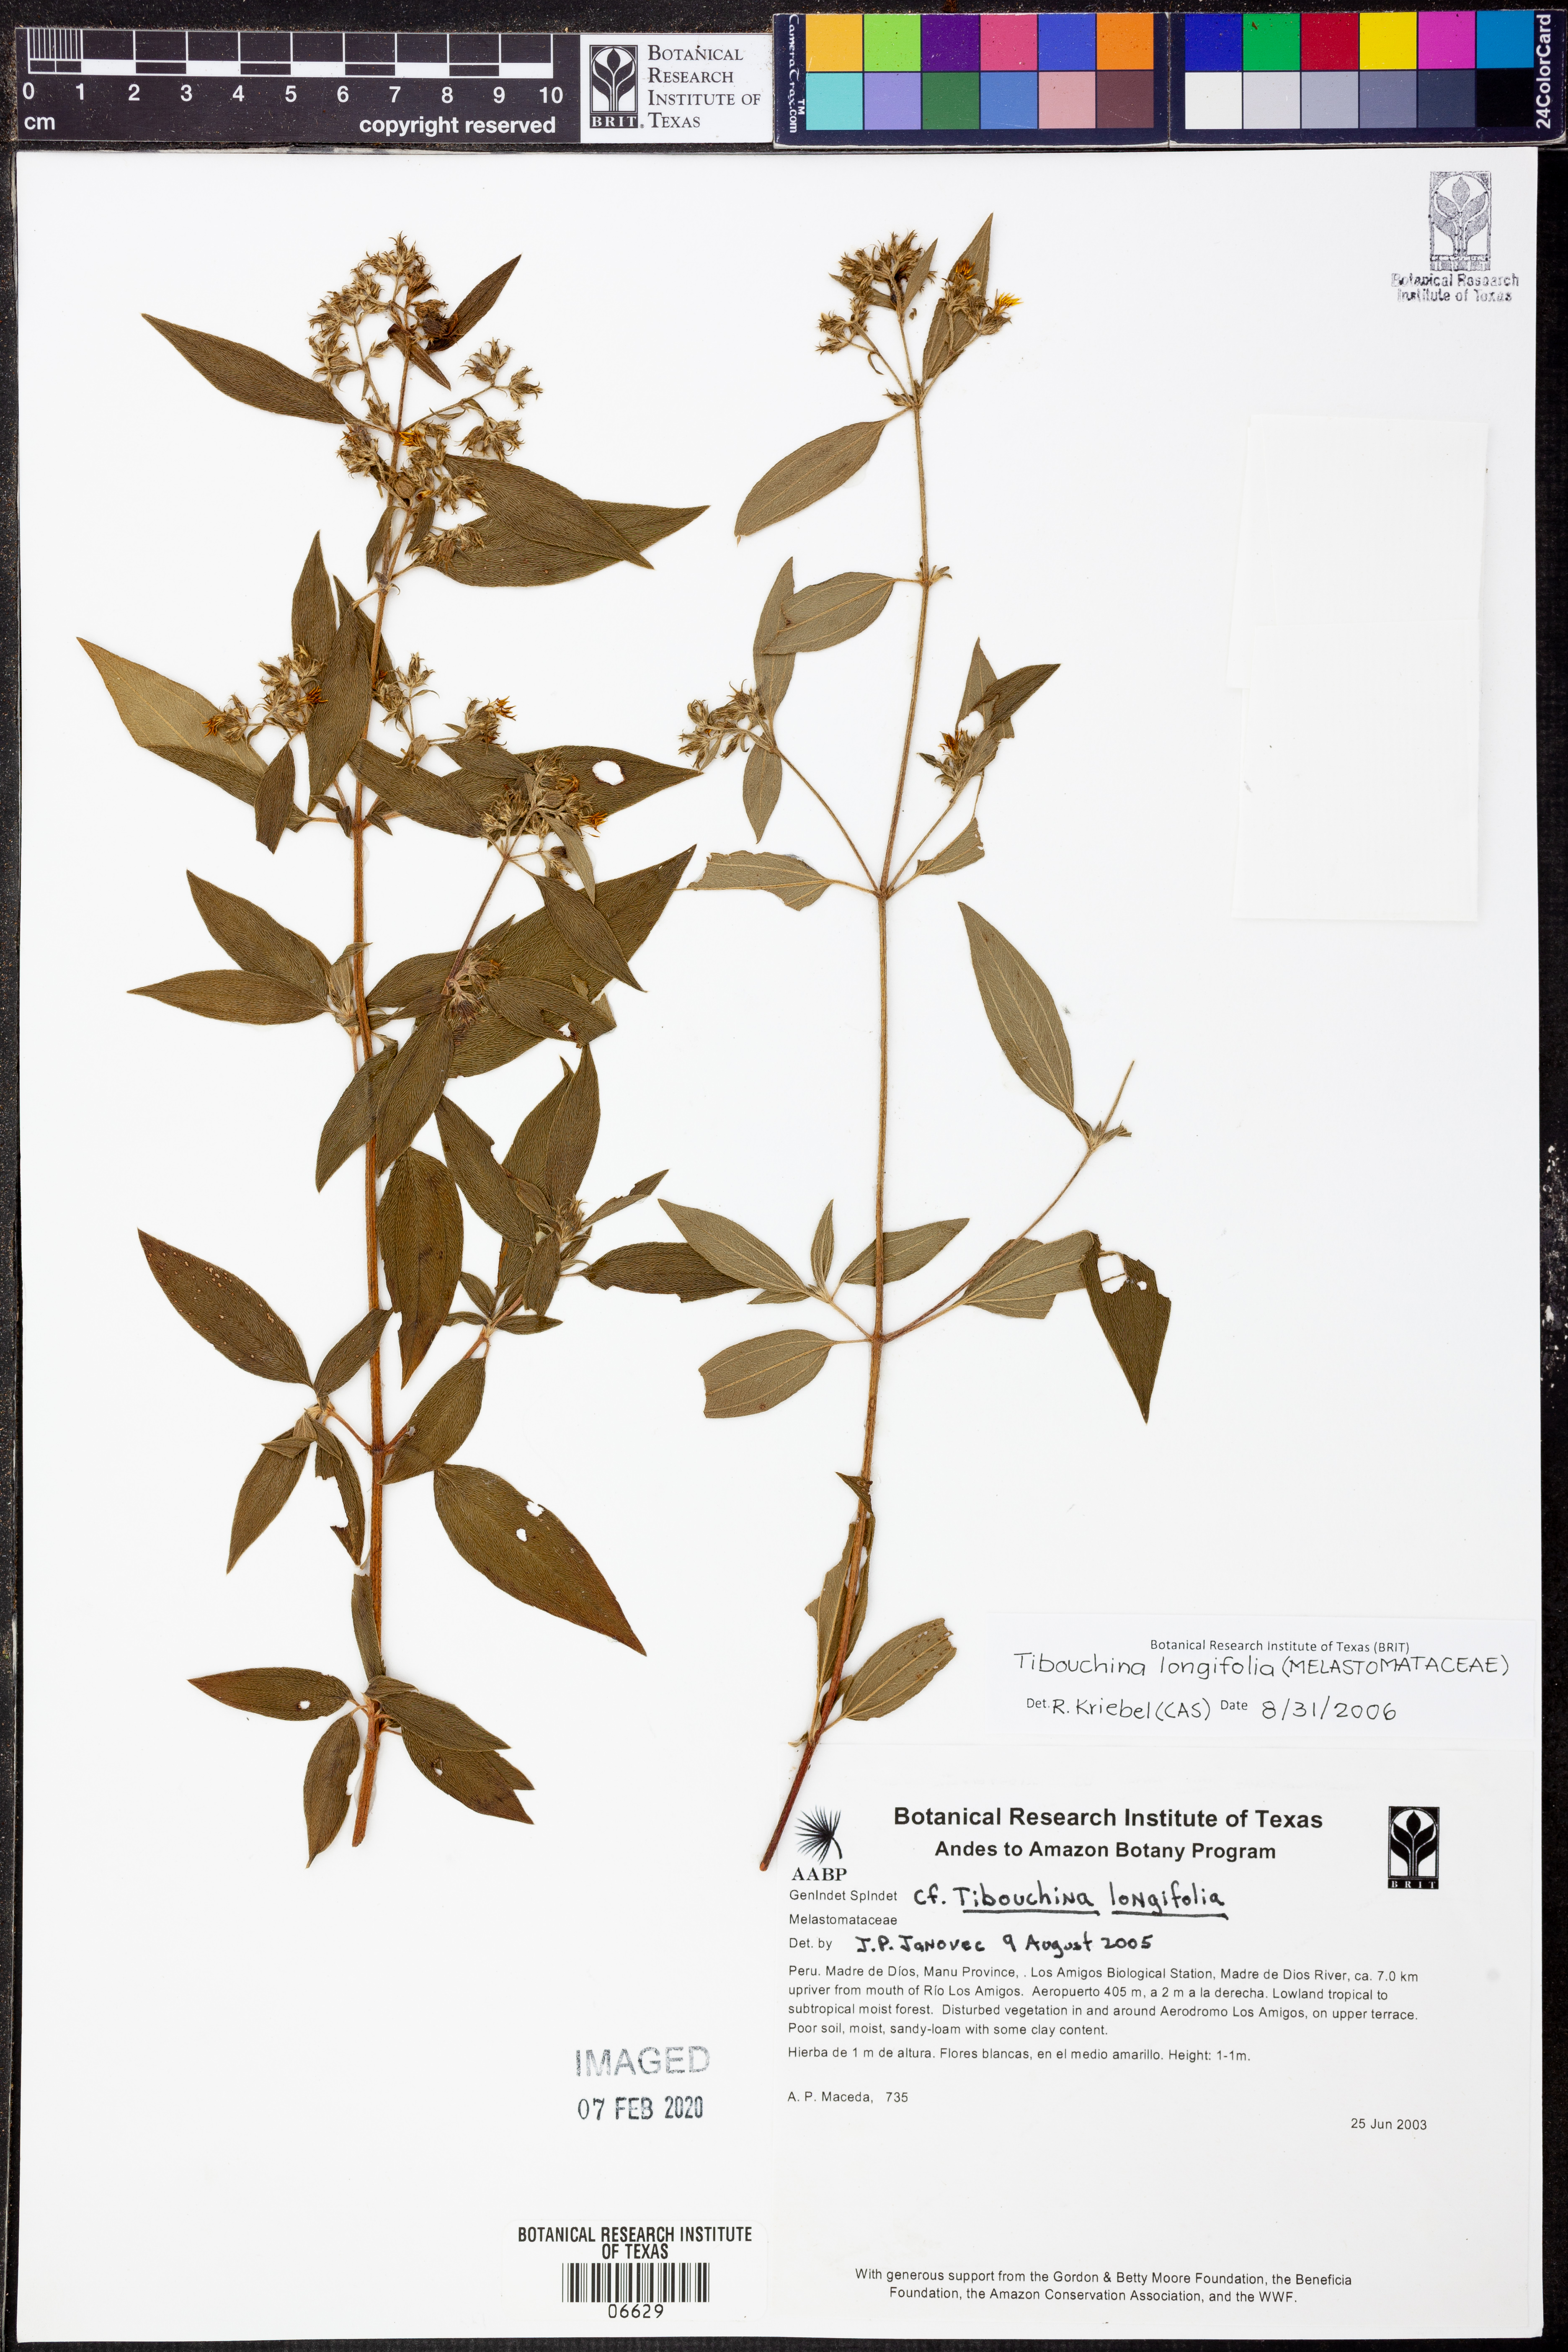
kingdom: Plantae
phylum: Tracheophyta
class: Magnoliopsida
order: Myrtales
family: Melastomataceae
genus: Chaetogastra
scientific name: Chaetogastra longifolia
